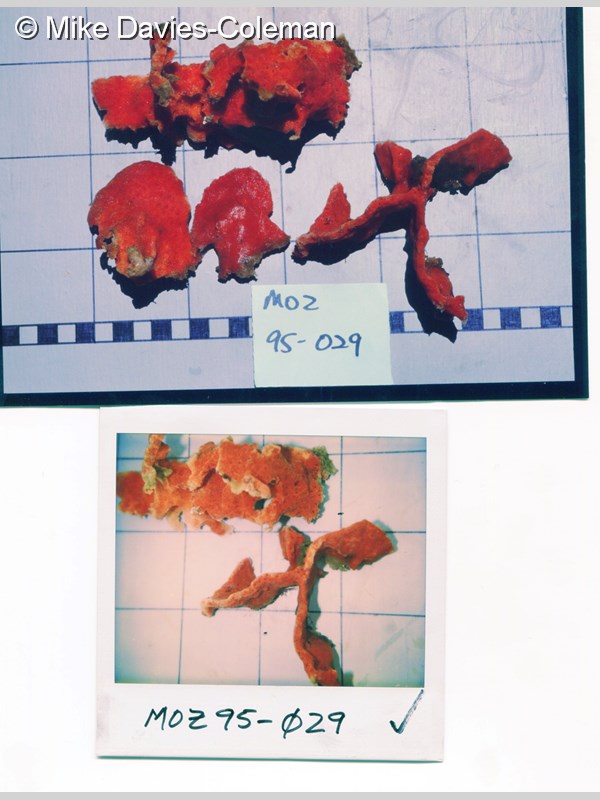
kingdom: Animalia
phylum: Porifera
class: Demospongiae
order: Haplosclerida
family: Chalinidae
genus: Haliclona
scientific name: Haliclona
